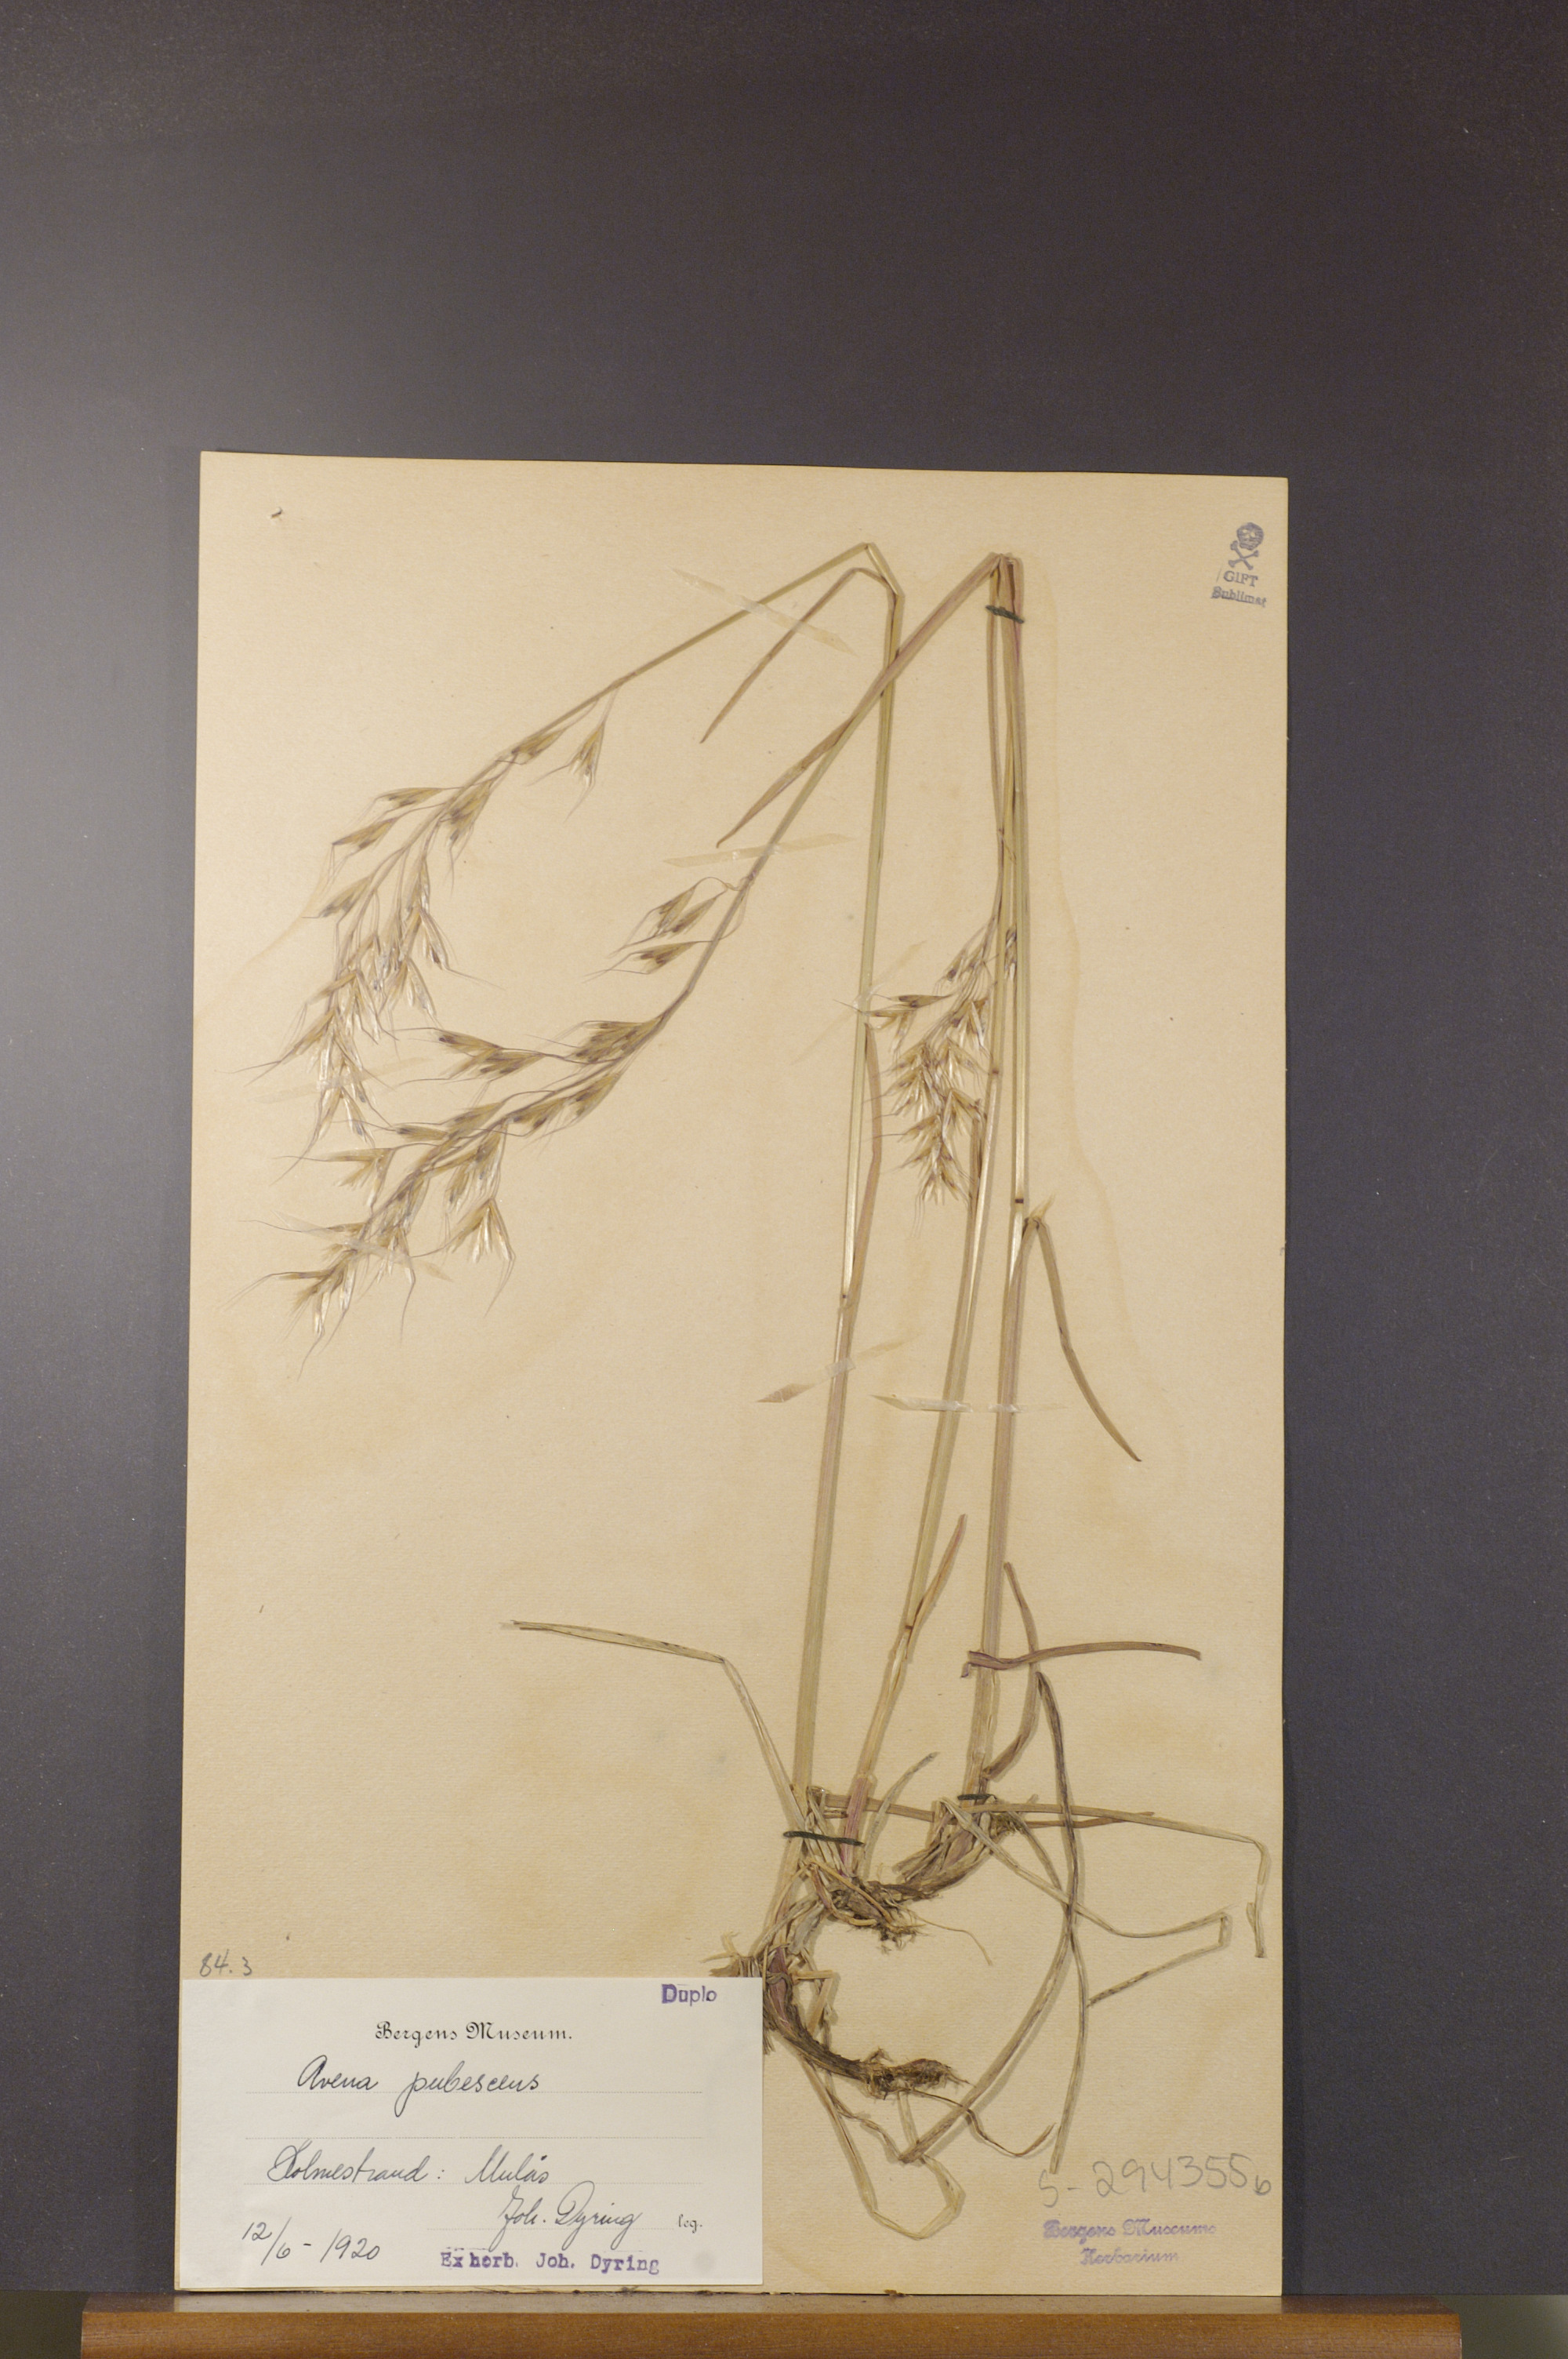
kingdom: Plantae
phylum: Tracheophyta
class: Liliopsida
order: Poales
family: Poaceae
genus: Avenula
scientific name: Avenula pubescens
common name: Downy alpine oatgrass
